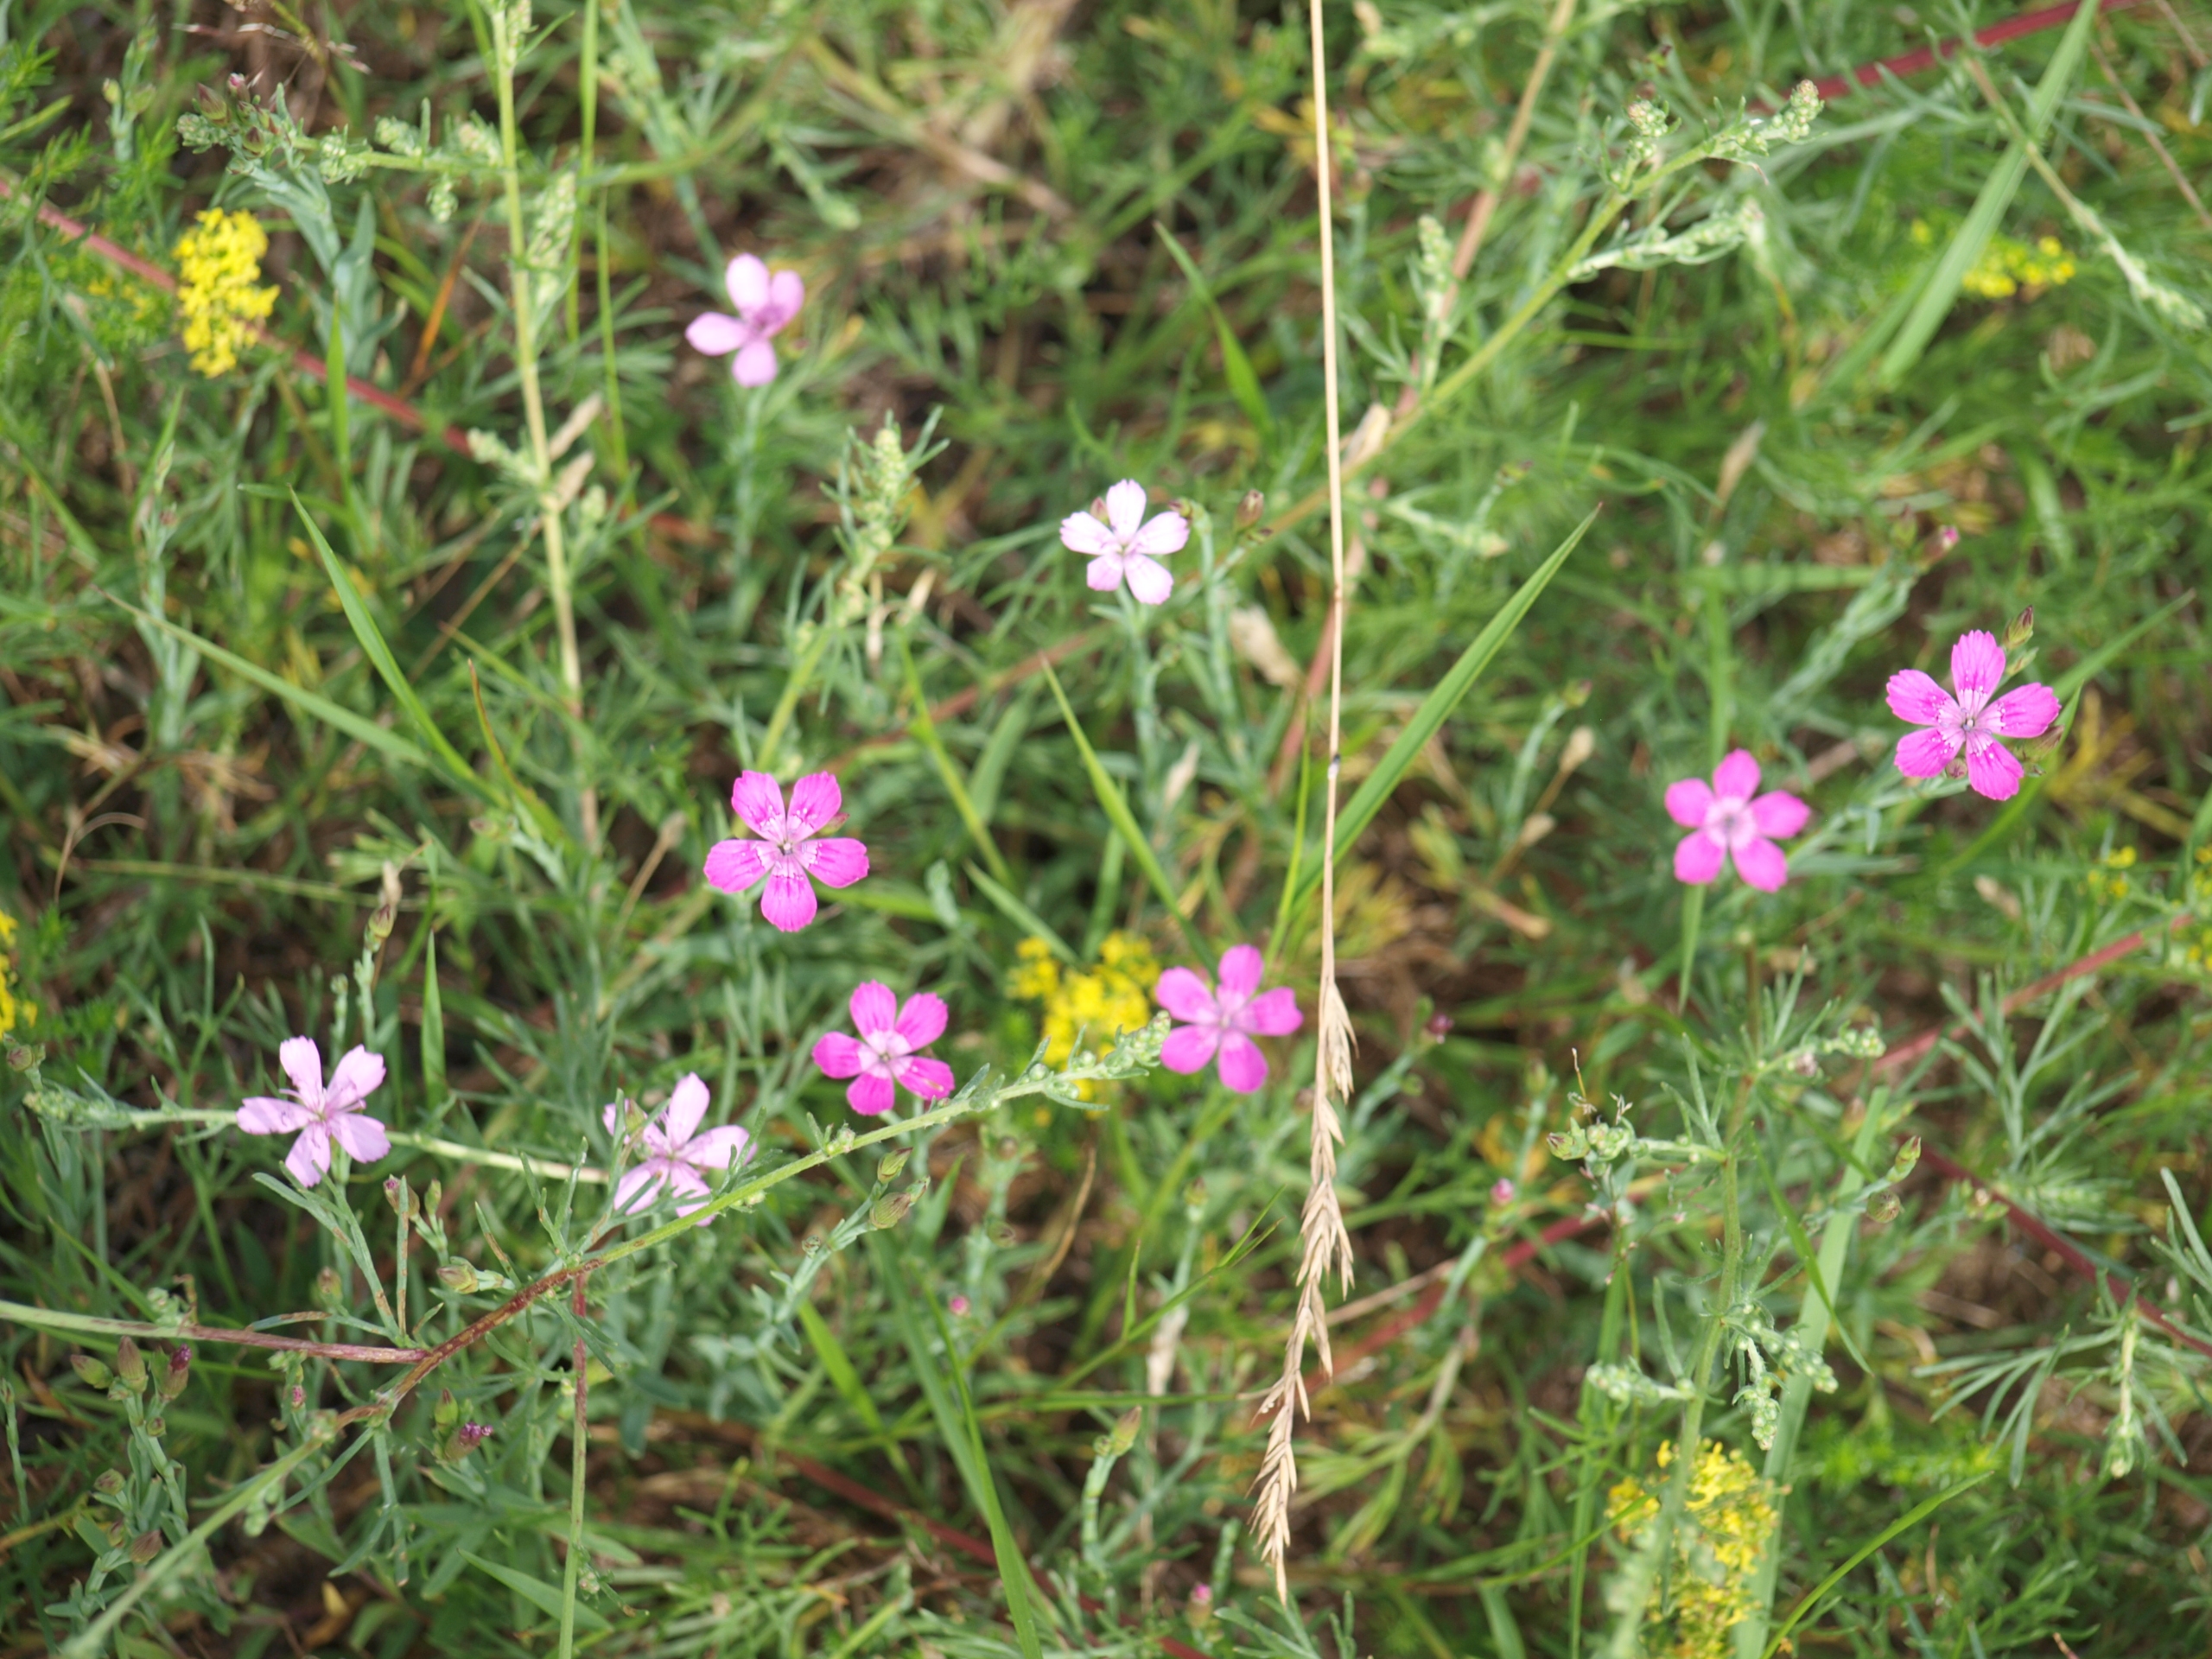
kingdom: Plantae
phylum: Tracheophyta
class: Magnoliopsida
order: Caryophyllales
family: Caryophyllaceae
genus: Dianthus
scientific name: Dianthus deltoides
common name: Bakke-nellike
